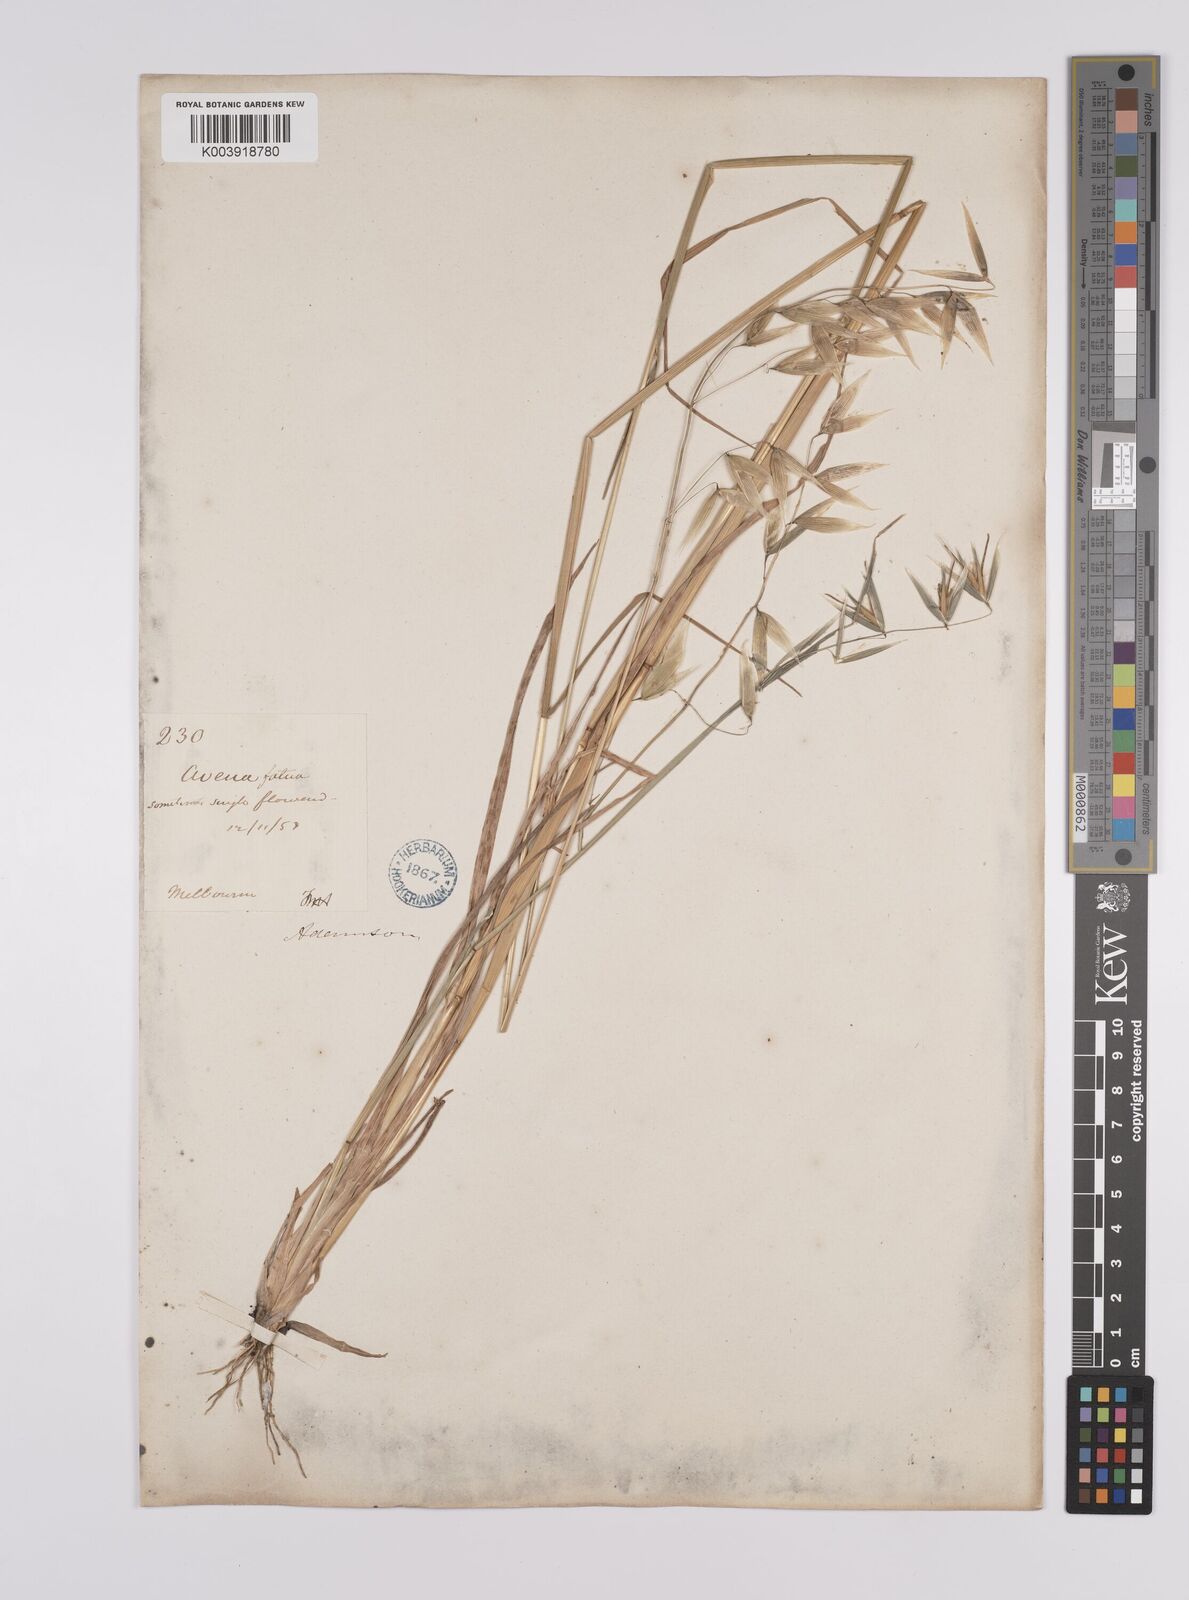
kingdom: Plantae
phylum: Tracheophyta
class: Liliopsida
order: Poales
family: Poaceae
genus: Avena
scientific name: Avena fatua
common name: Wild oat
